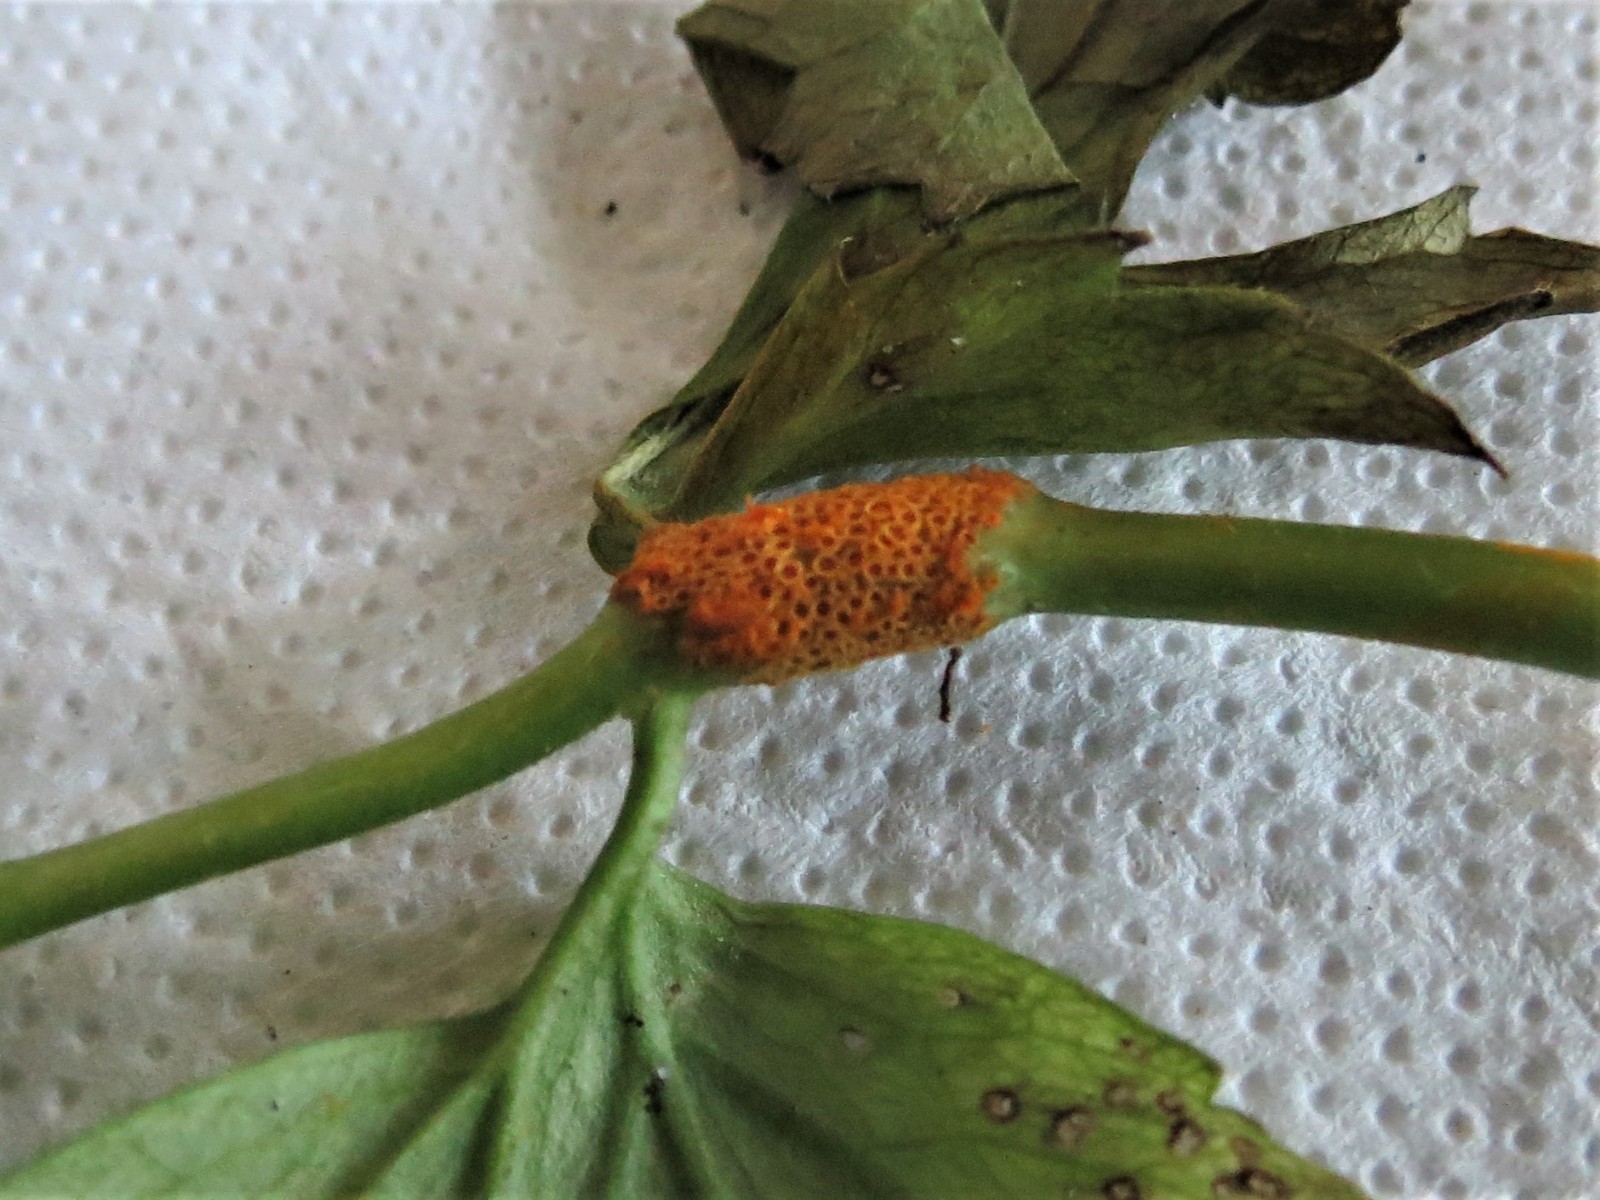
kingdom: Fungi
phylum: Basidiomycota
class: Pucciniomycetes
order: Pucciniales
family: Pucciniaceae
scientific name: Pucciniaceae
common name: rustsvampfamilien
